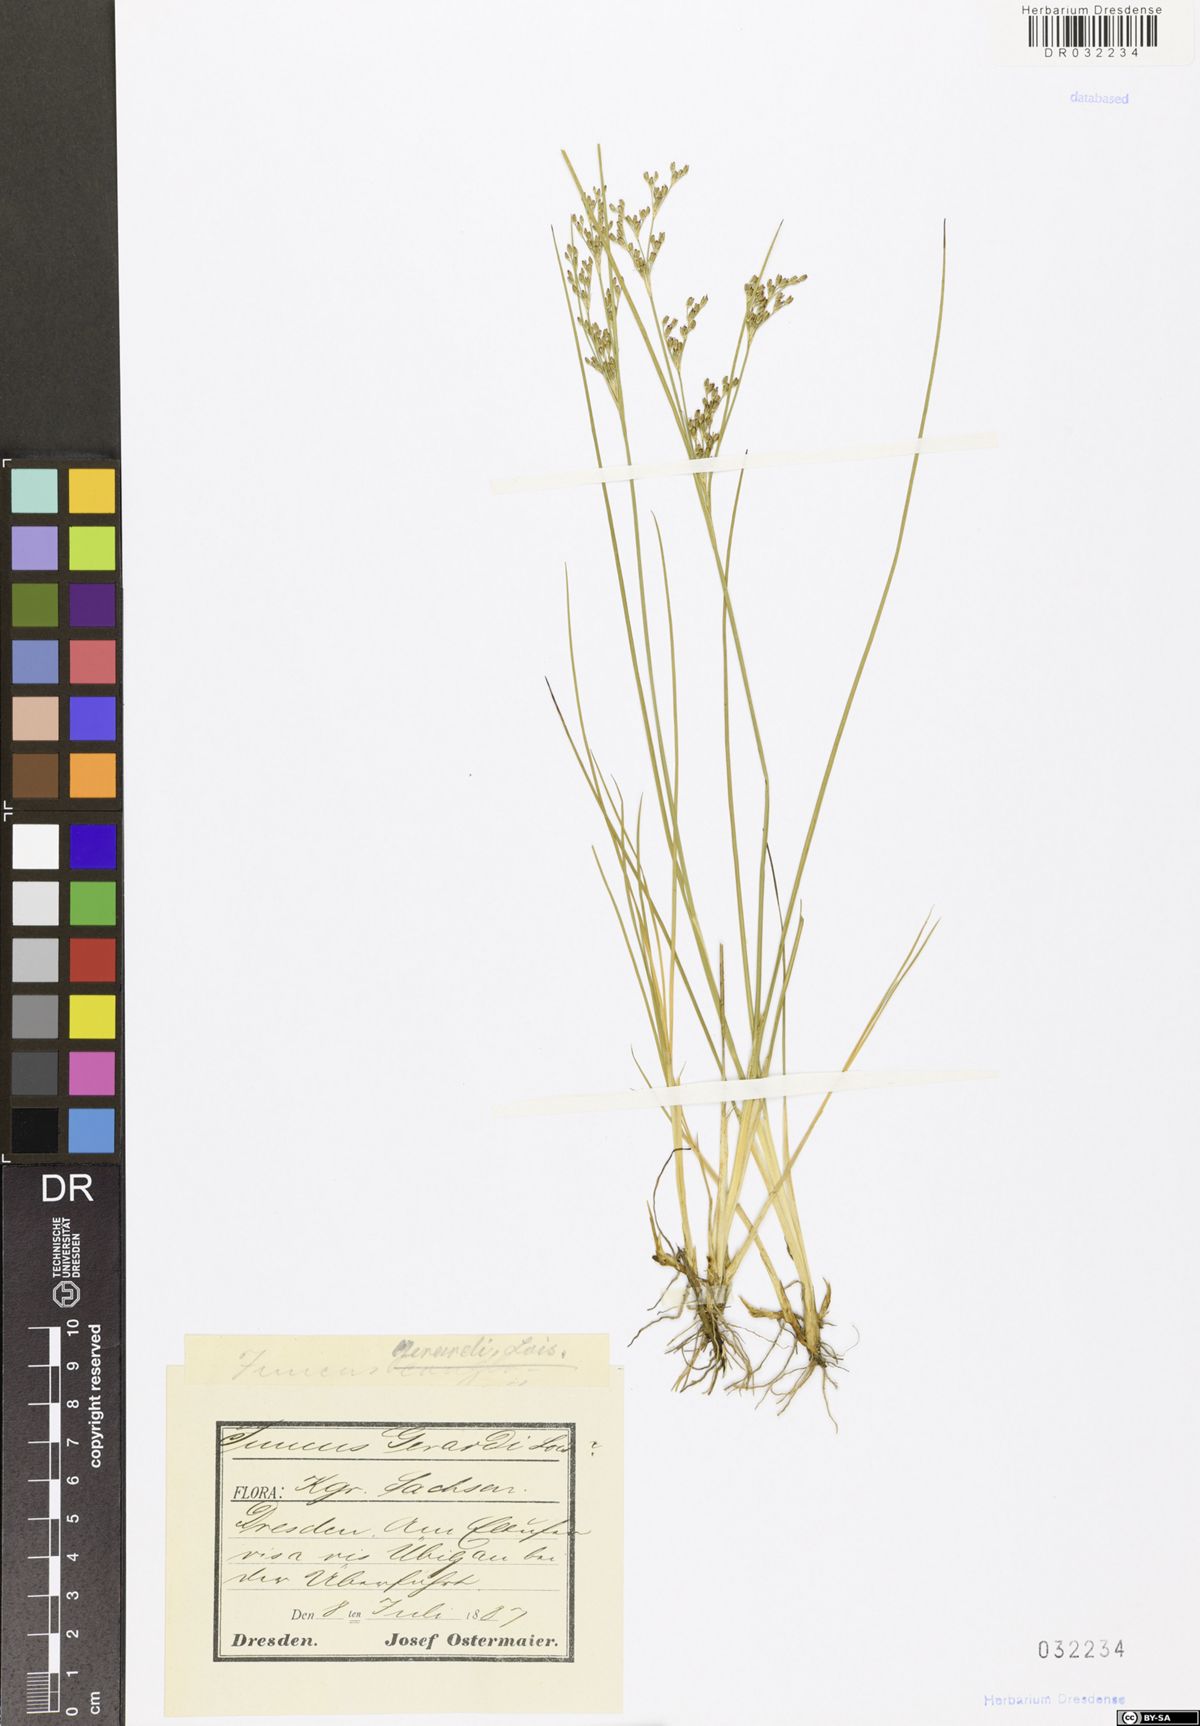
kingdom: Plantae
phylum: Tracheophyta
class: Liliopsida
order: Poales
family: Juncaceae
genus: Juncus
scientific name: Juncus gerardi
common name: Saltmarsh rush
